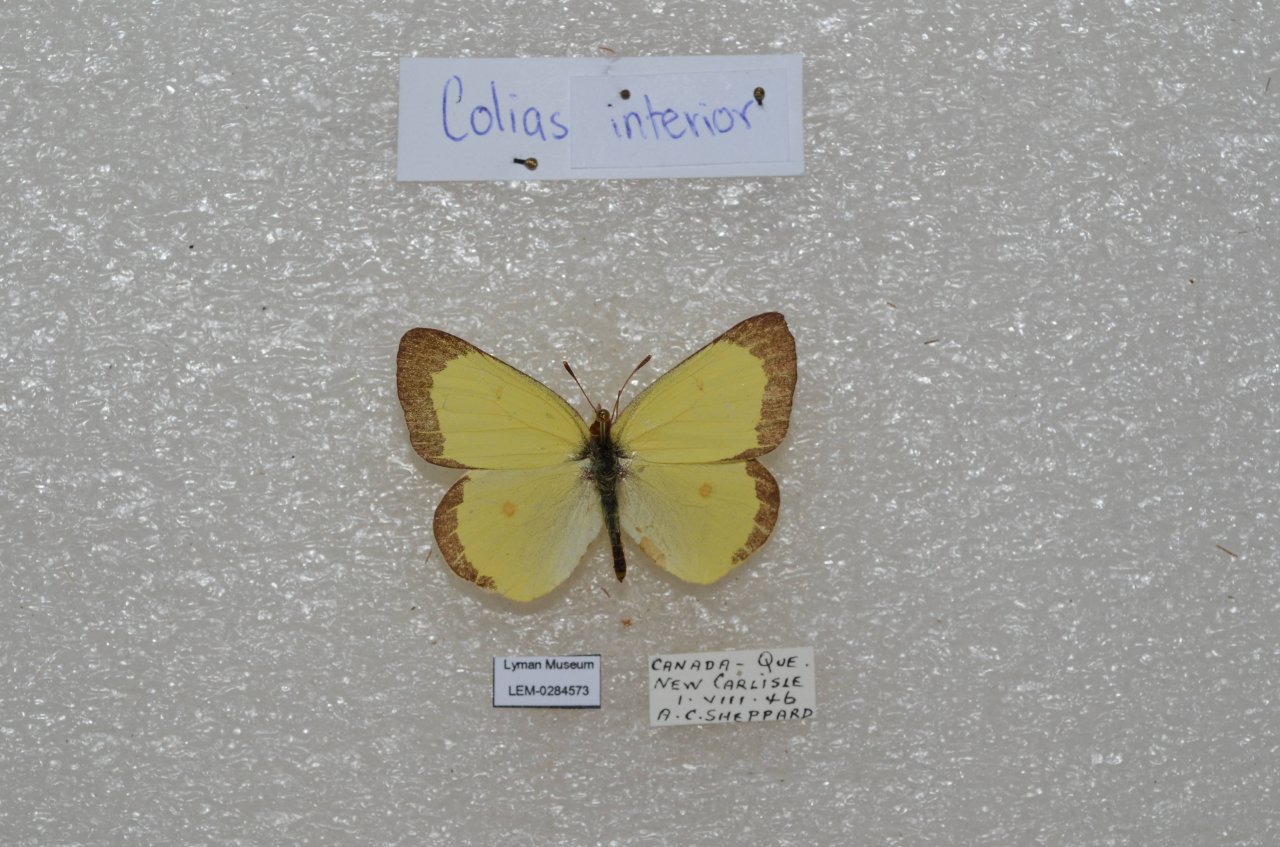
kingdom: Animalia
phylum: Arthropoda
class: Insecta
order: Lepidoptera
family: Pieridae
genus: Colias
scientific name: Colias interior
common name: Pink-edged Sulphur
